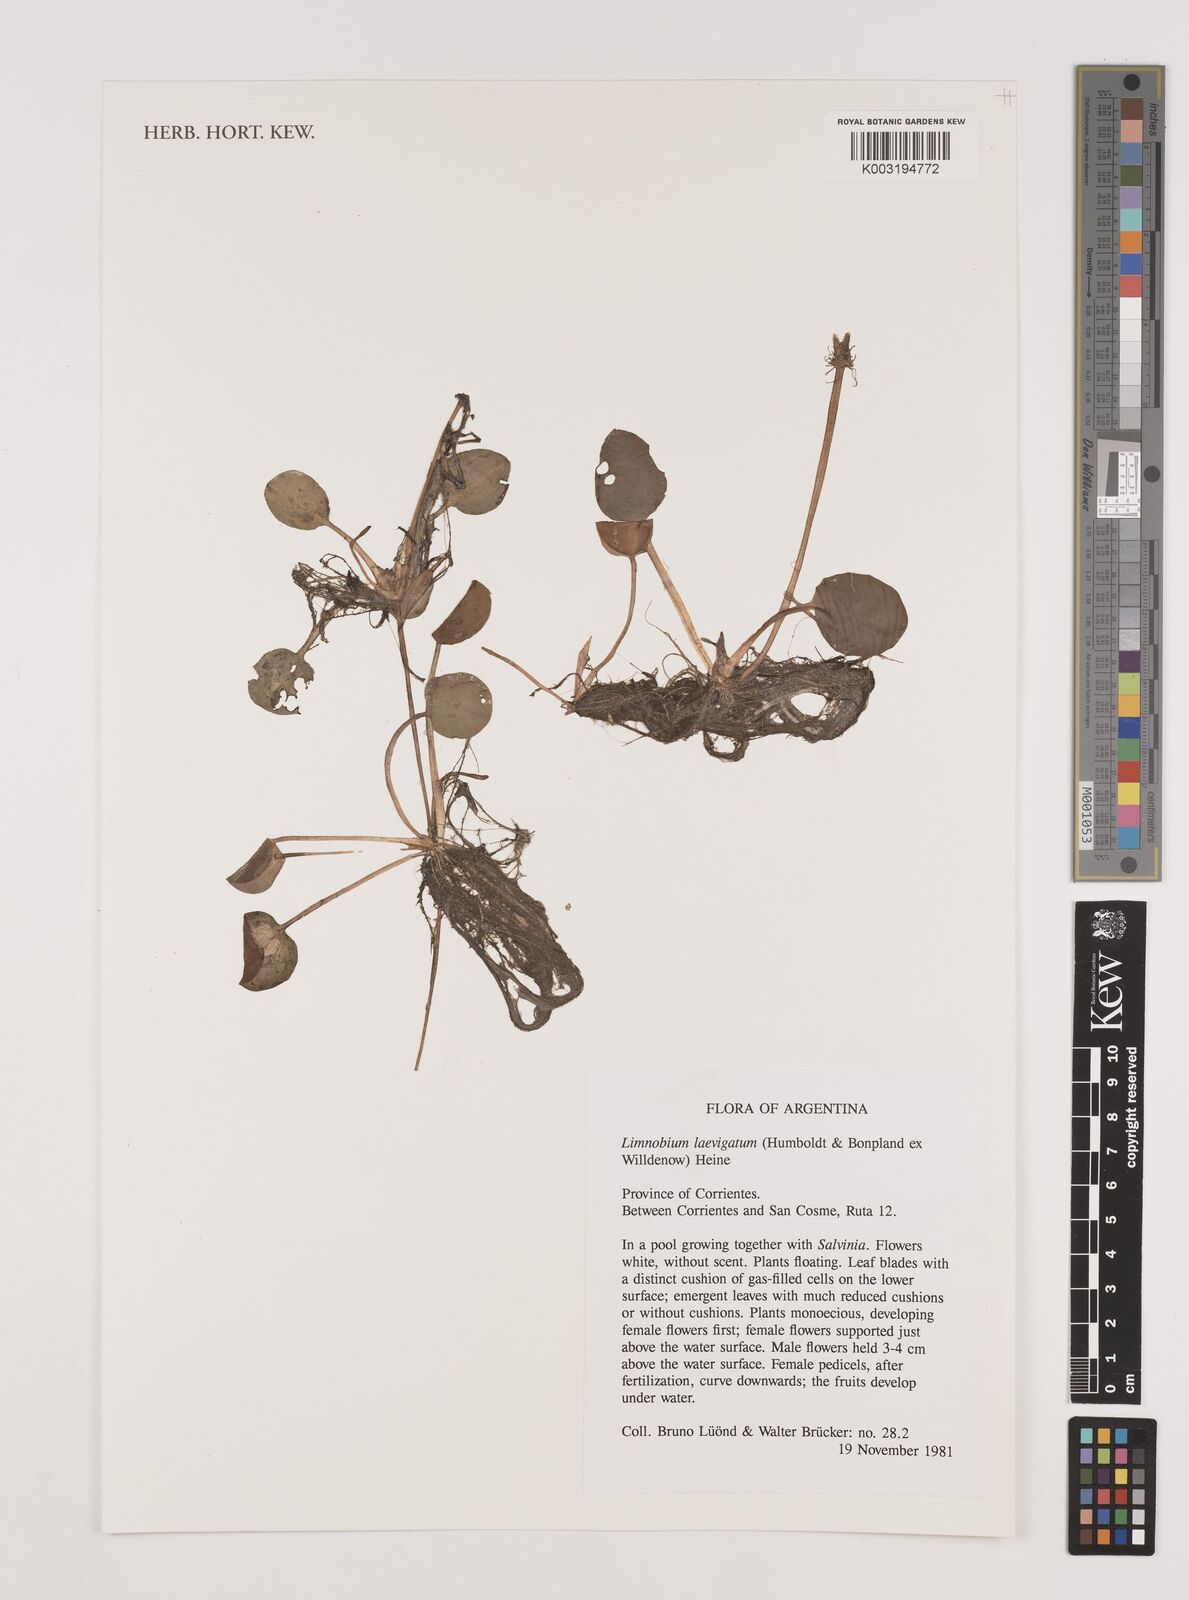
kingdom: Plantae
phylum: Tracheophyta
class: Liliopsida
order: Alismatales
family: Hydrocharitaceae
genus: Hydrocharis
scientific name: Hydrocharis laevigata
